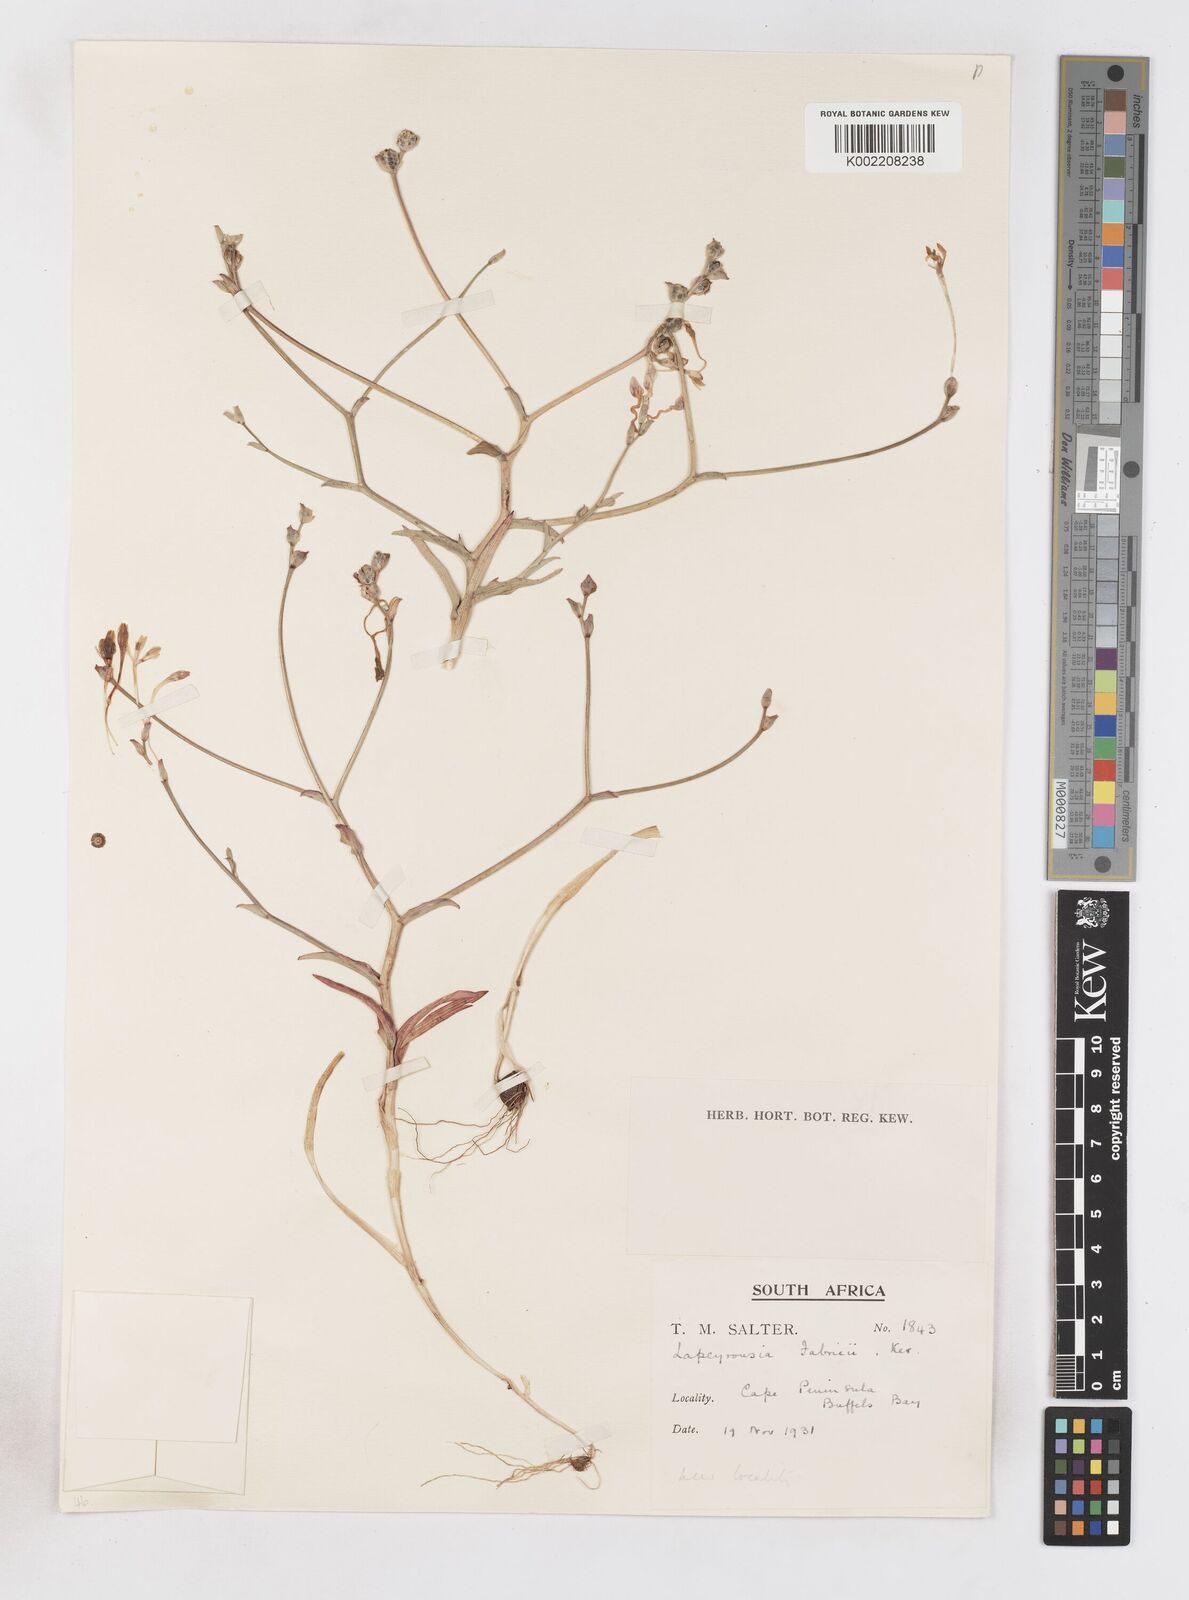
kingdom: Plantae
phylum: Tracheophyta
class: Liliopsida
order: Asparagales
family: Iridaceae
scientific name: Iridaceae
